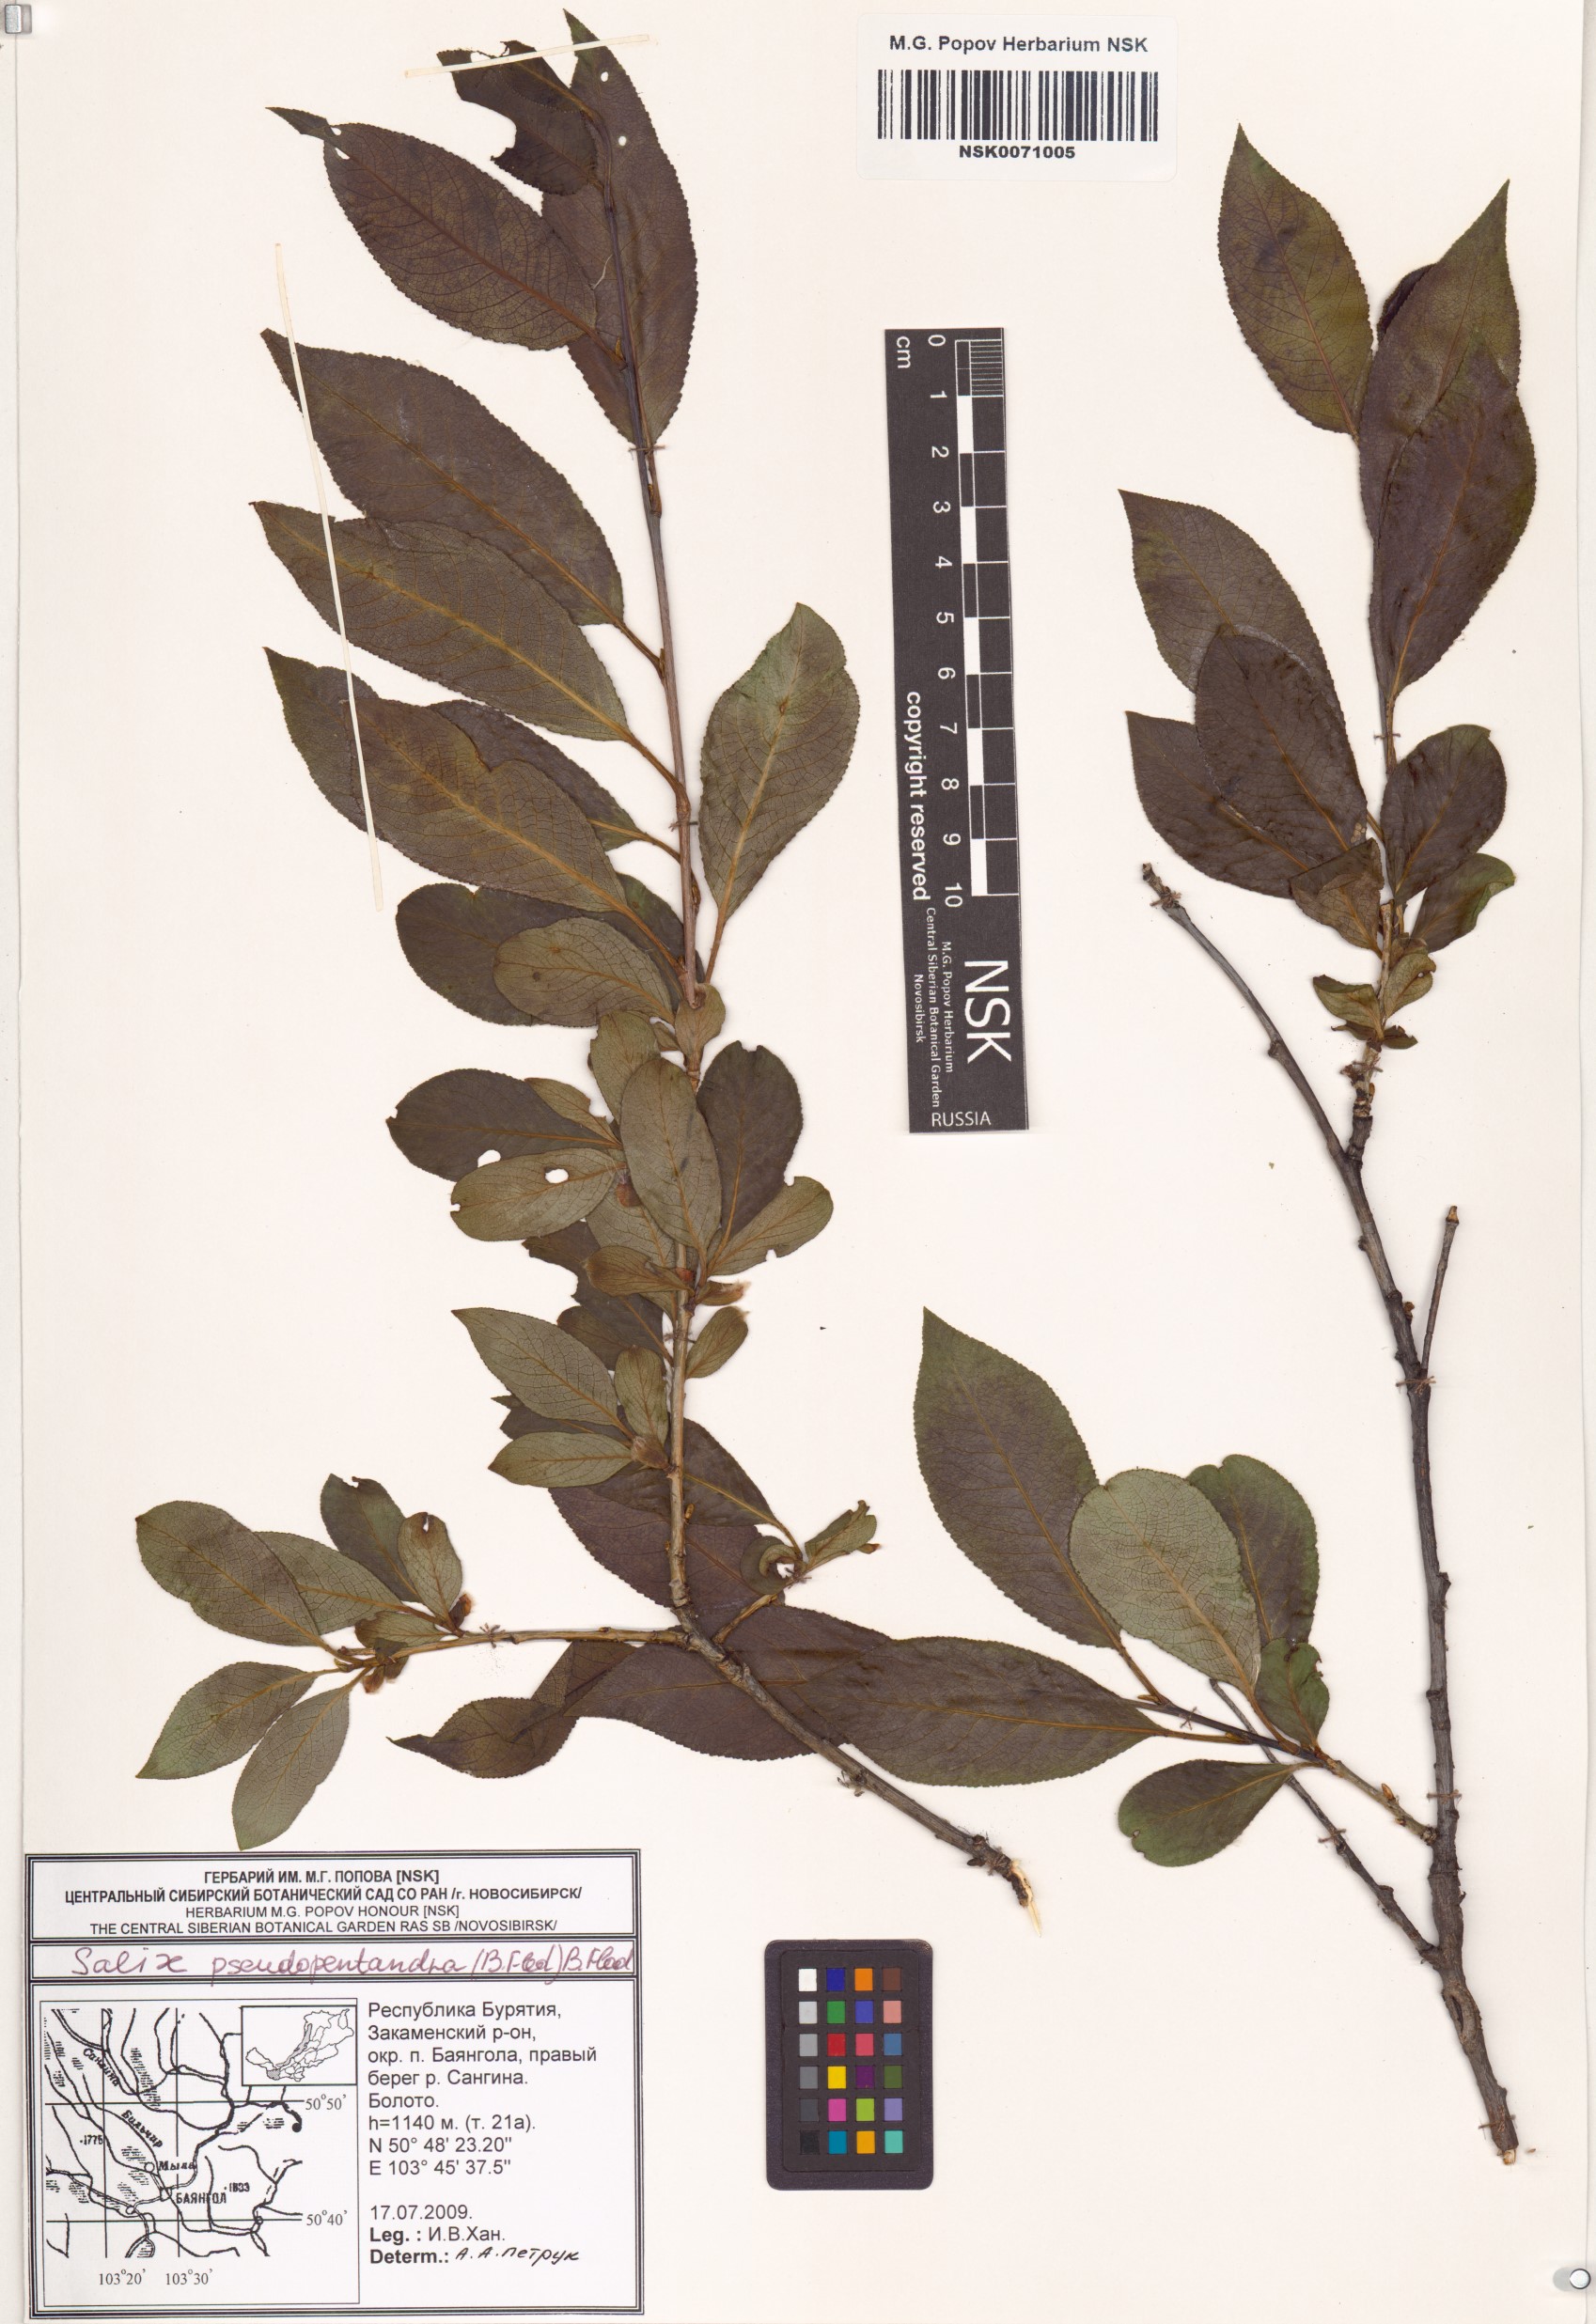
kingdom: Plantae
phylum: Tracheophyta
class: Magnoliopsida
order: Malpighiales
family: Salicaceae
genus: Salix
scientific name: Salix pseudopentandra
